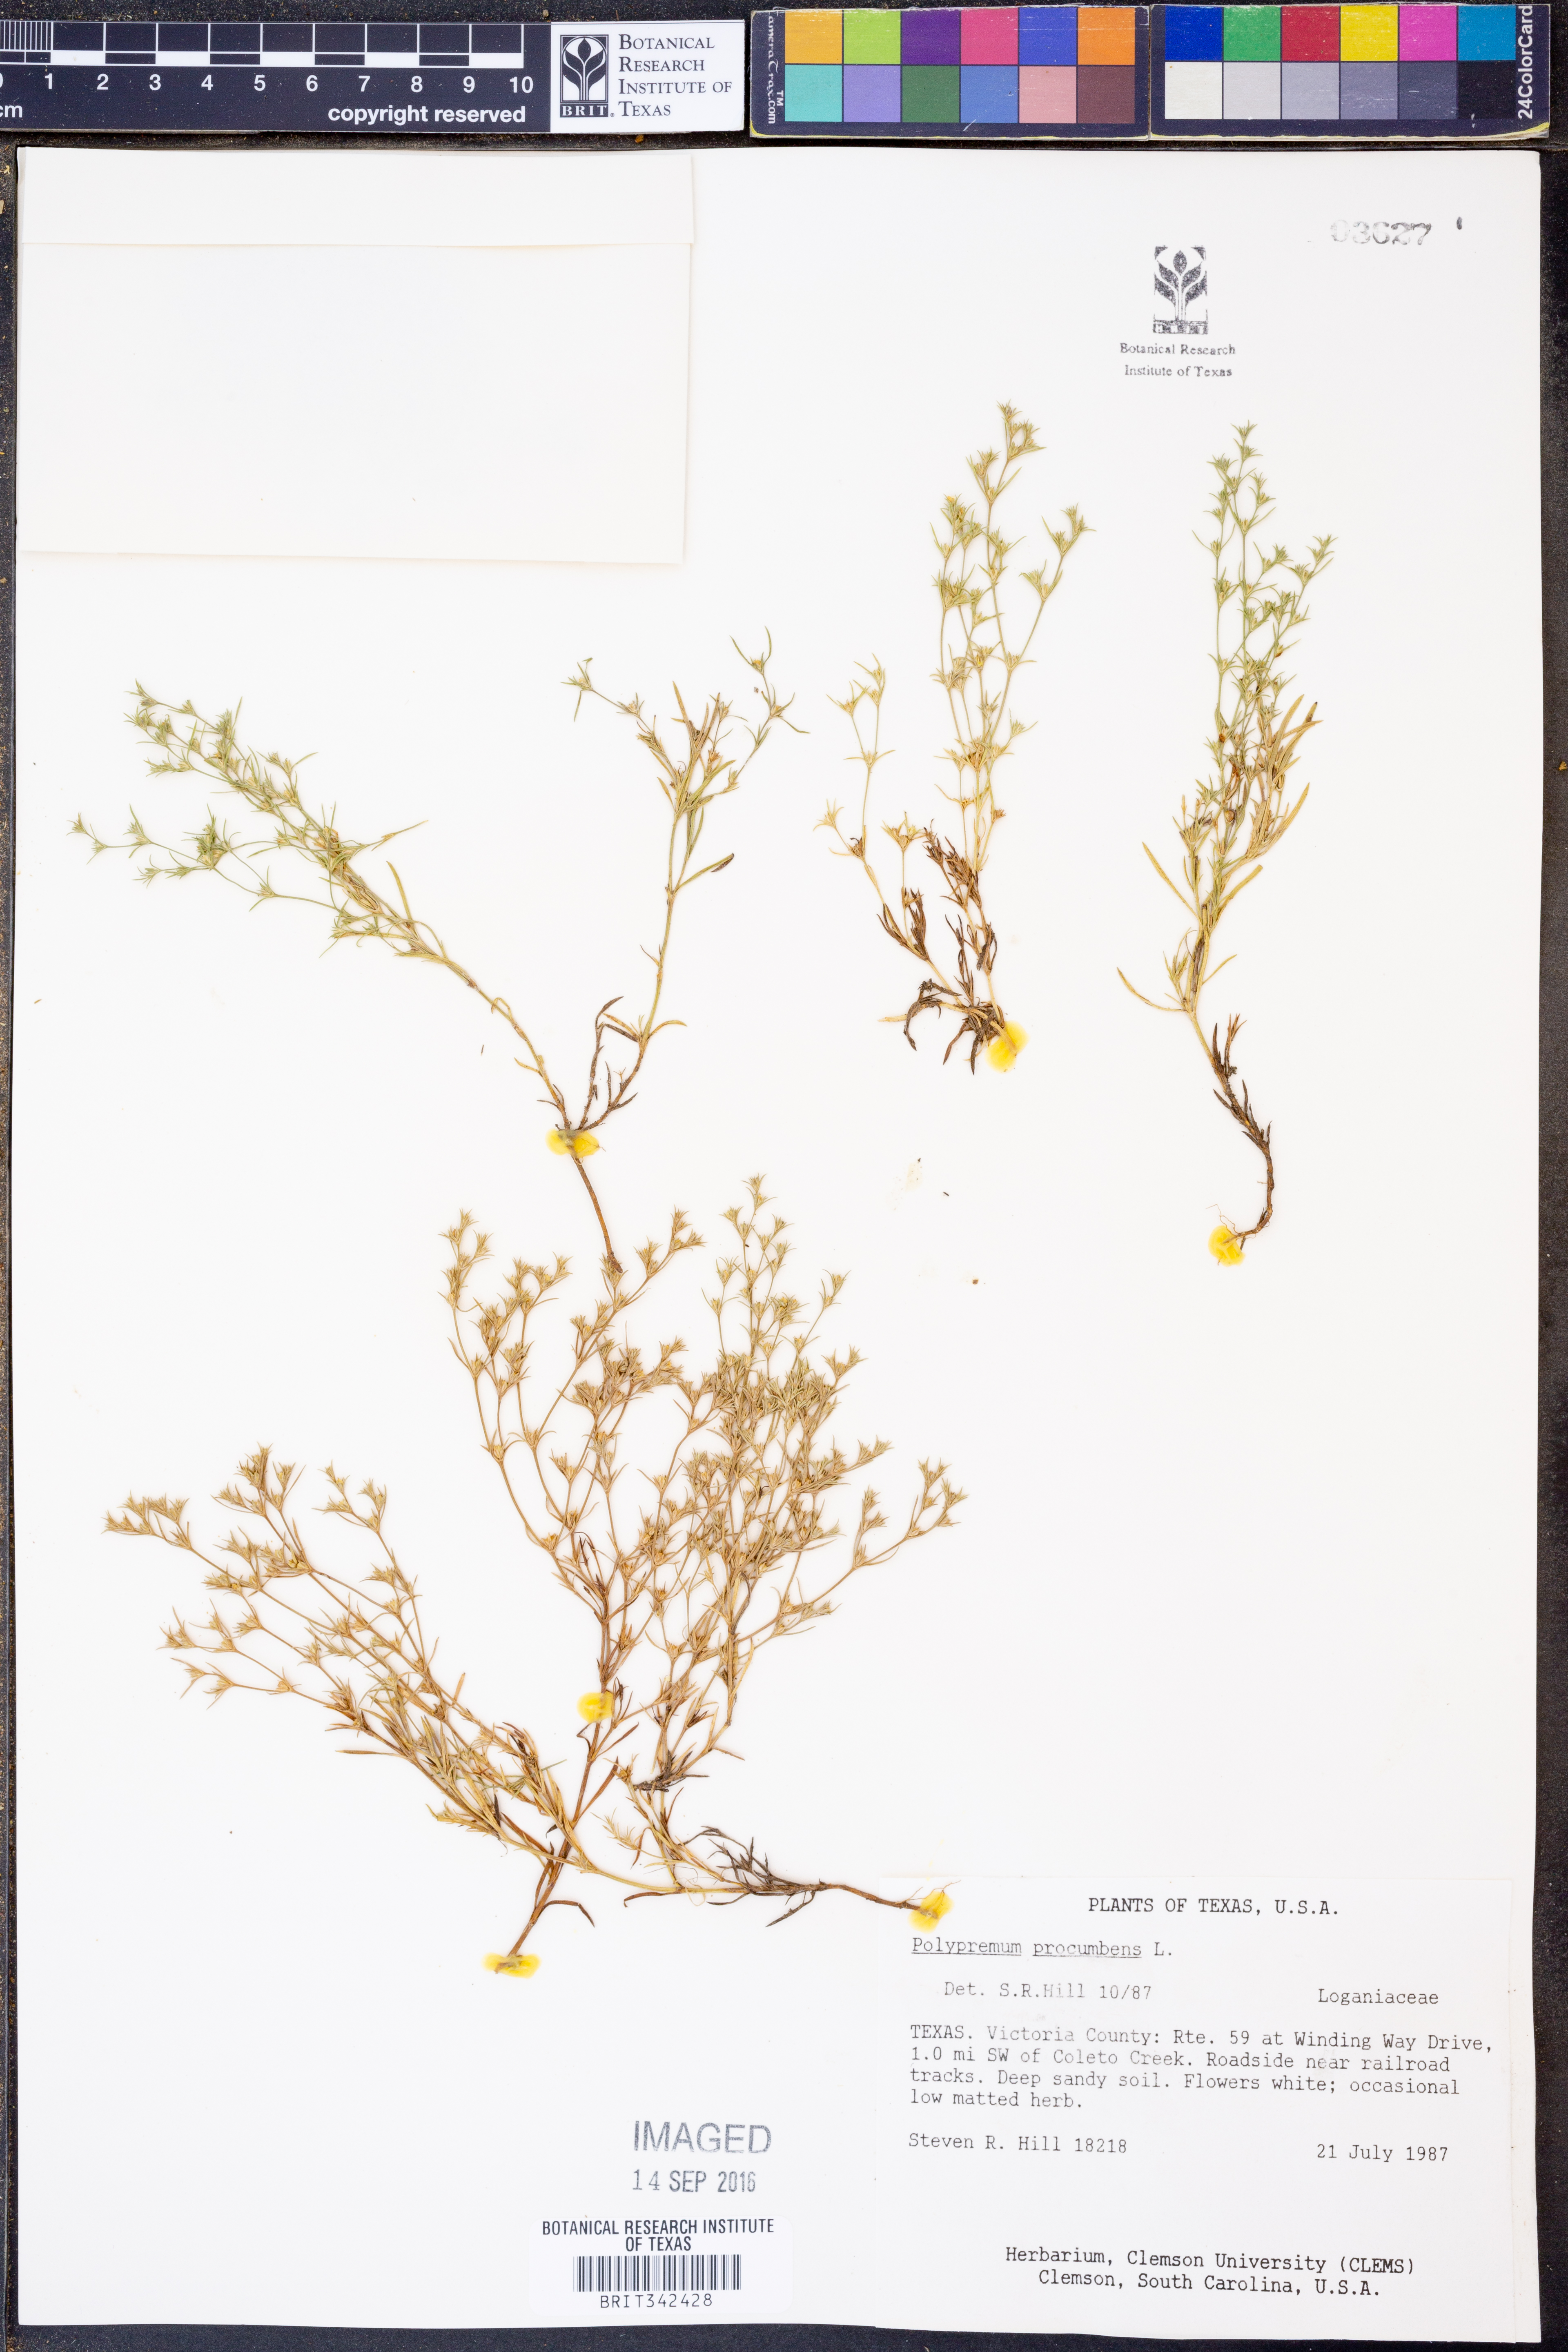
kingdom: Plantae
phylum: Tracheophyta
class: Magnoliopsida
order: Lamiales
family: Tetrachondraceae
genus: Polypremum
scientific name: Polypremum procumbens
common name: Juniper-leaf
